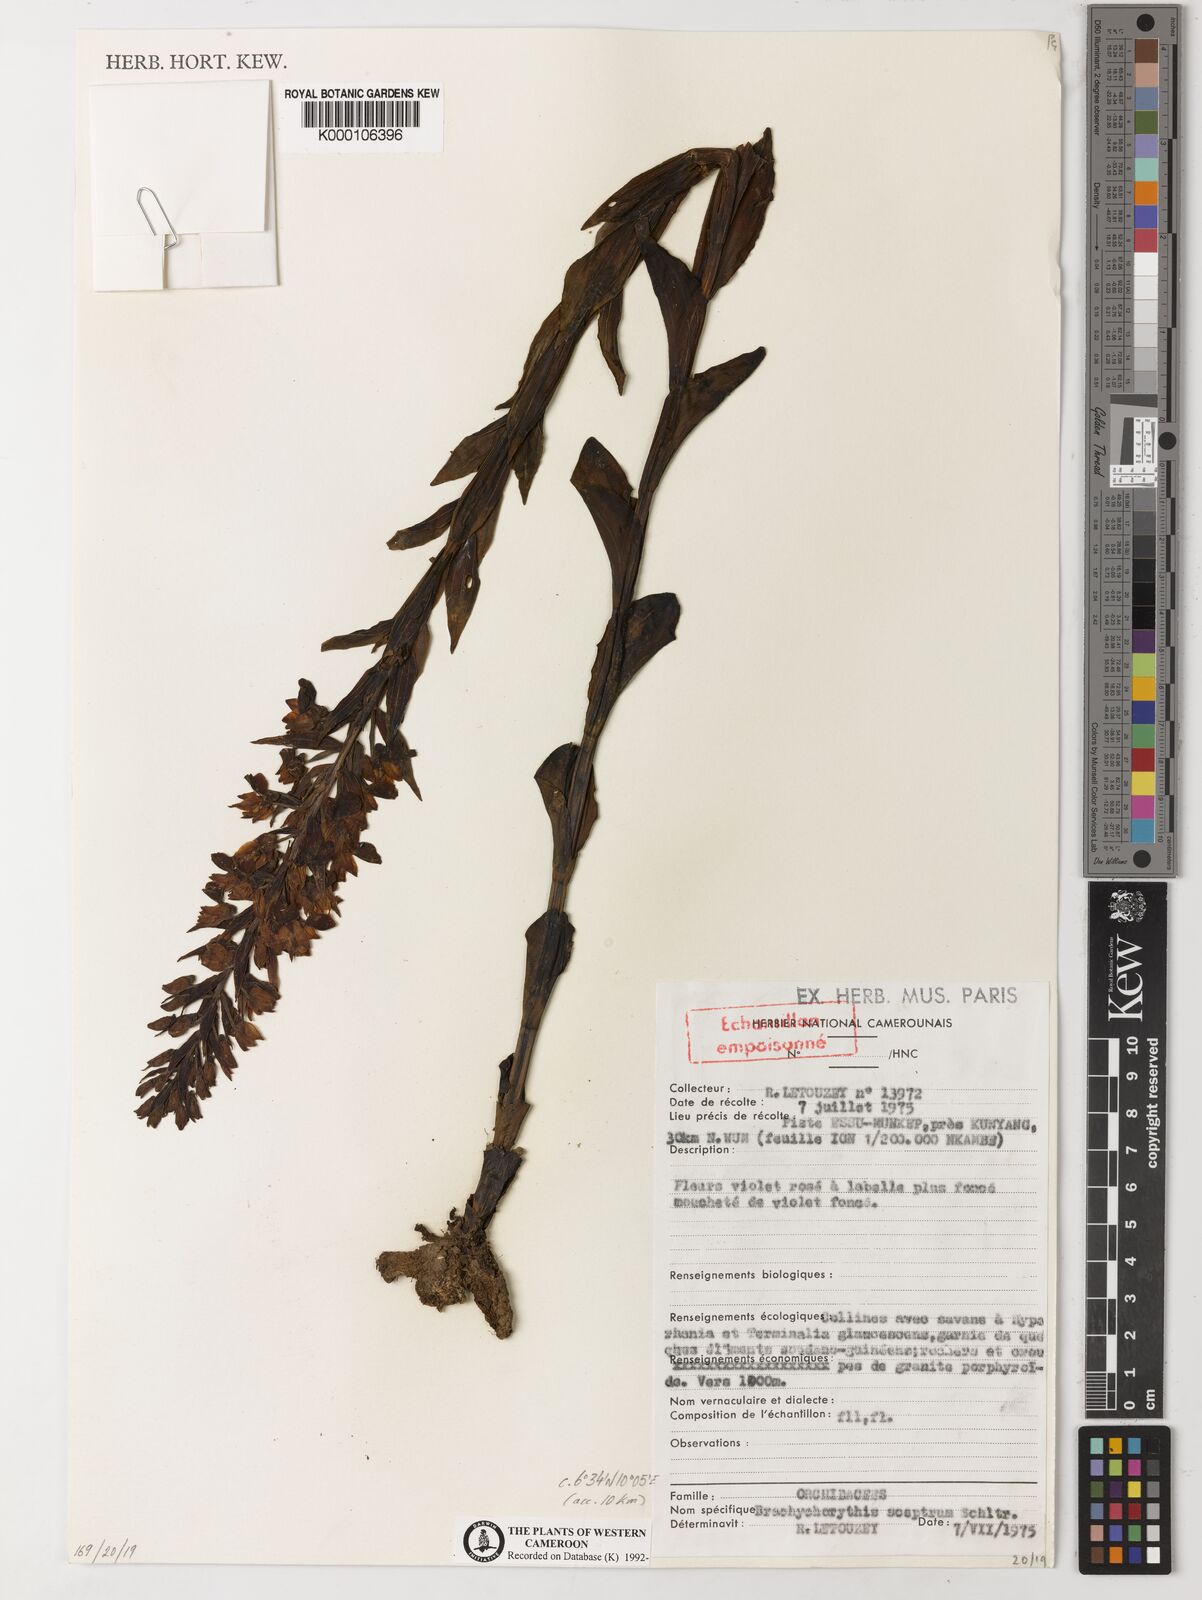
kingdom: Plantae
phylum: Tracheophyta
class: Liliopsida
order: Asparagales
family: Orchidaceae
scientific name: Orchidaceae
